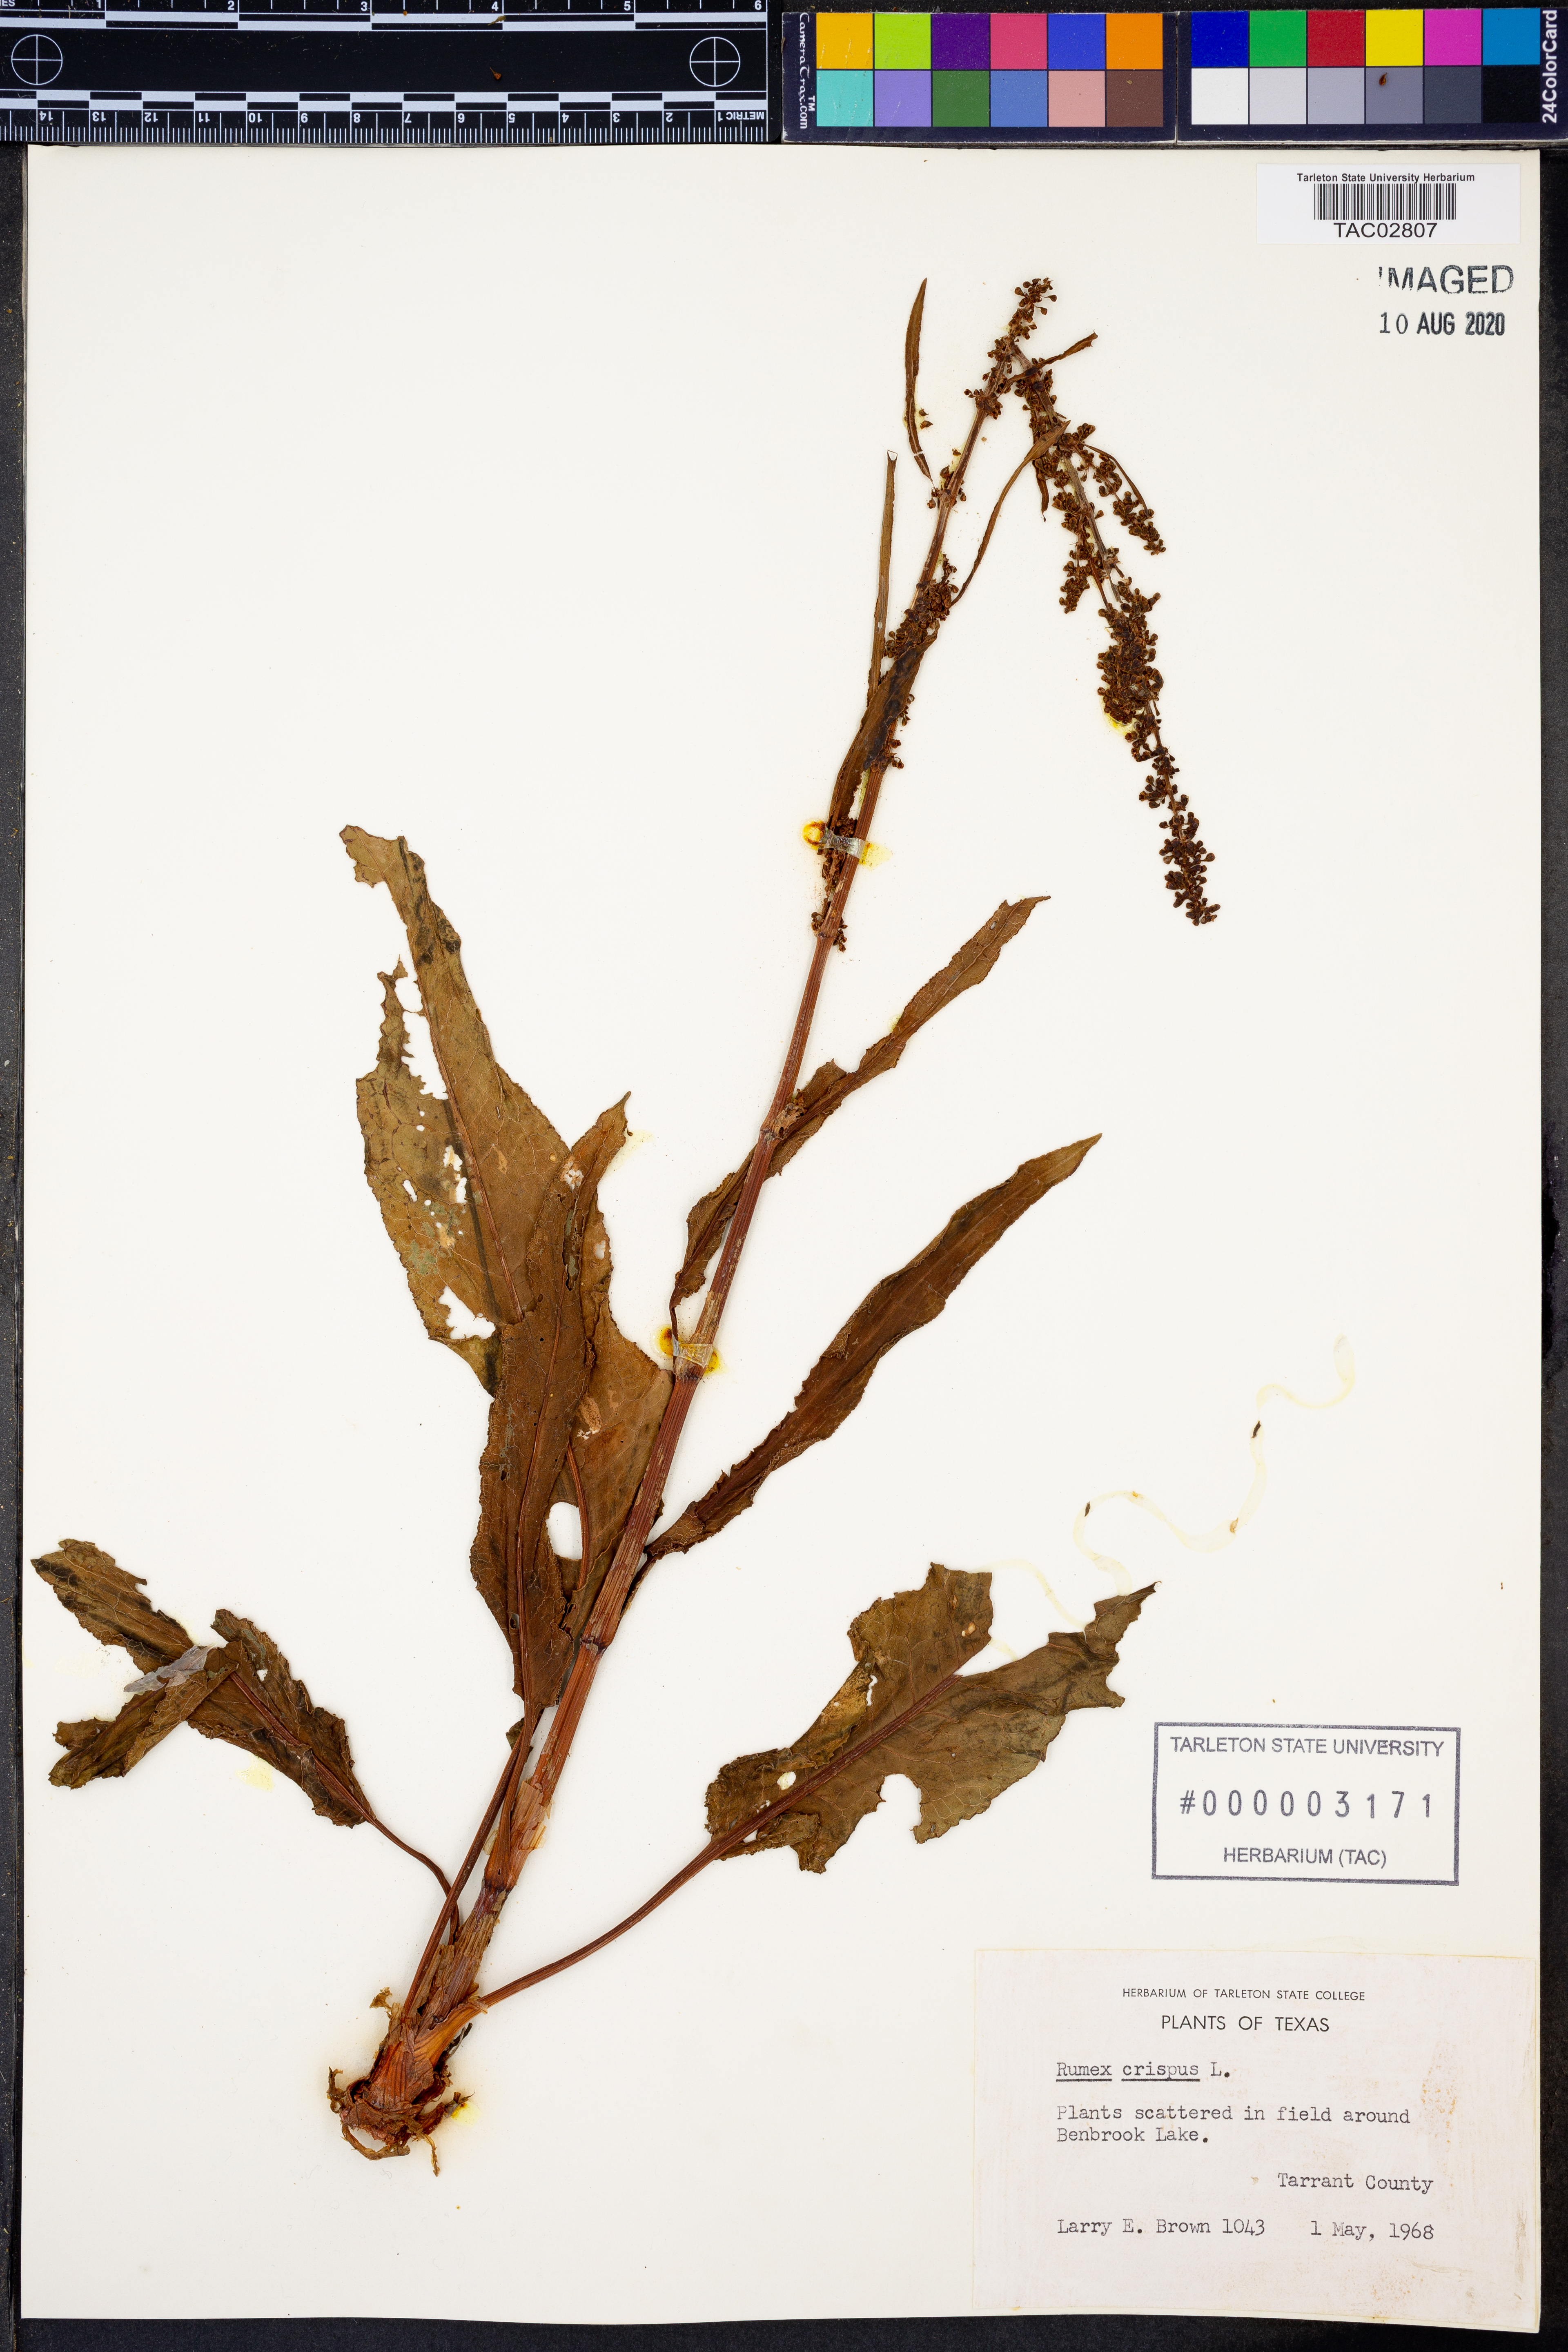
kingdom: Plantae
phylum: Tracheophyta
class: Magnoliopsida
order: Caryophyllales
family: Polygonaceae
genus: Rumex
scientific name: Rumex crispus
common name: Curled dock
